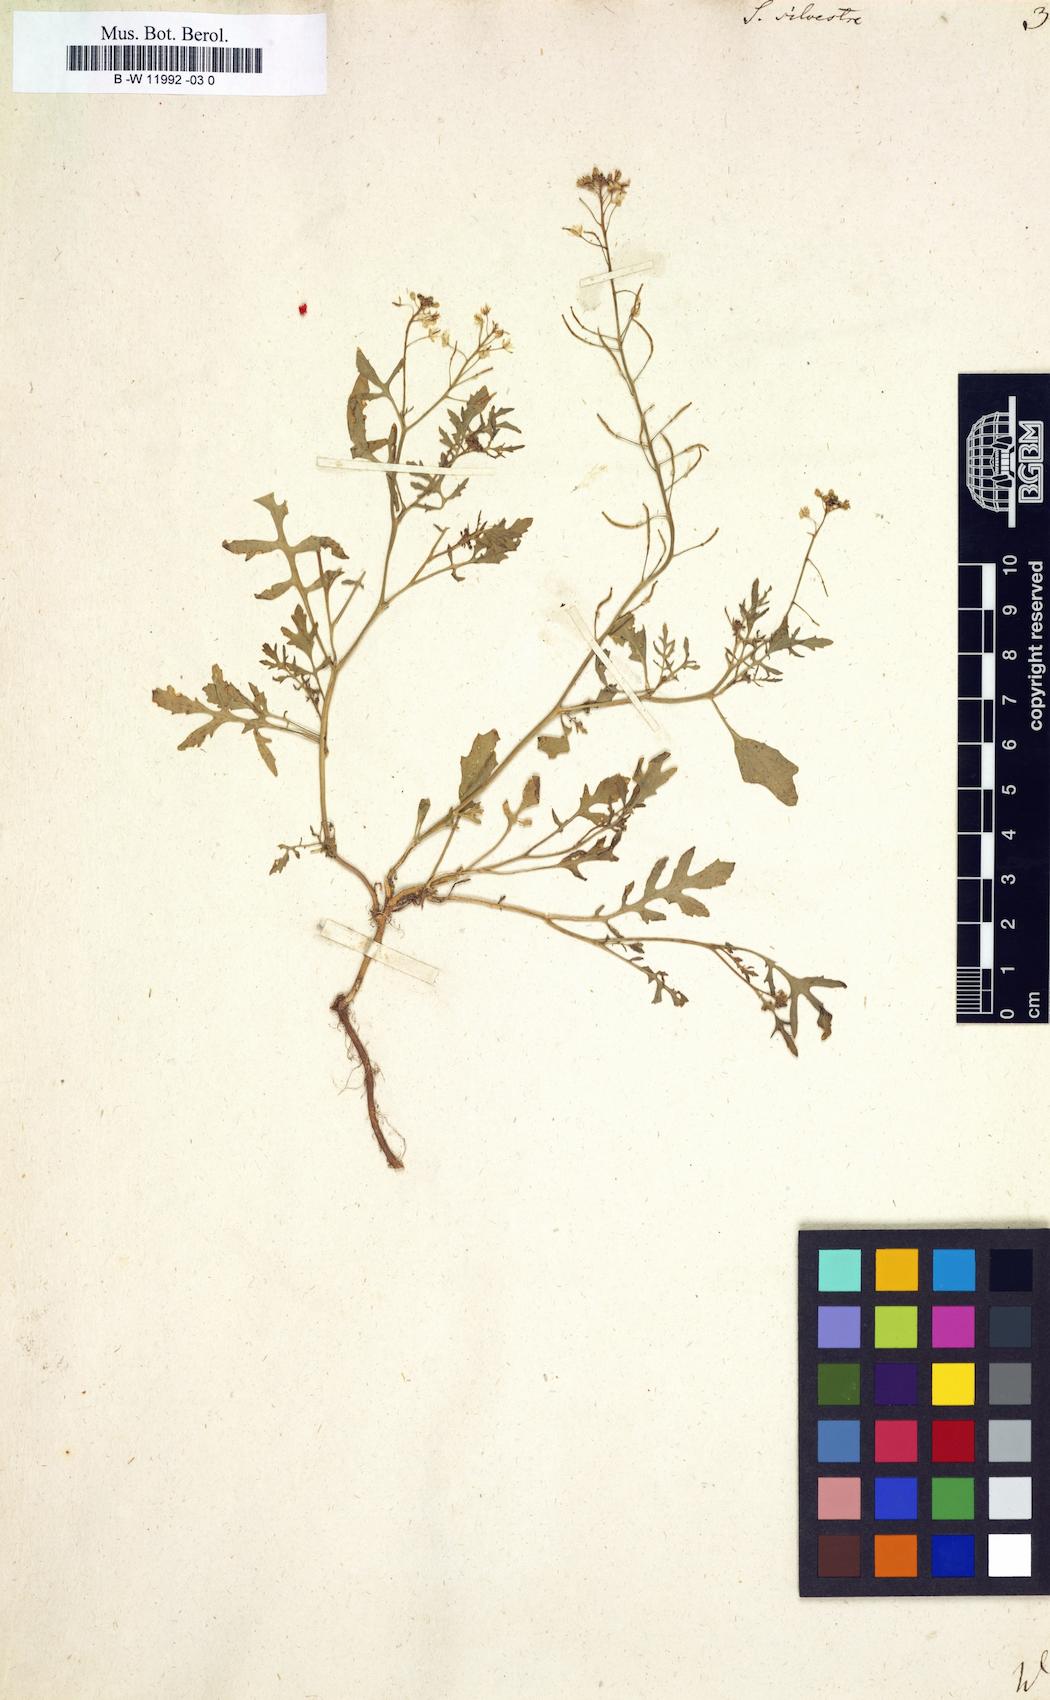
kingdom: Plantae
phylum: Tracheophyta
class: Magnoliopsida
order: Brassicales
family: Brassicaceae
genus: Rorippa
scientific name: Rorippa sylvestris
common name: Creeping yellowcress
